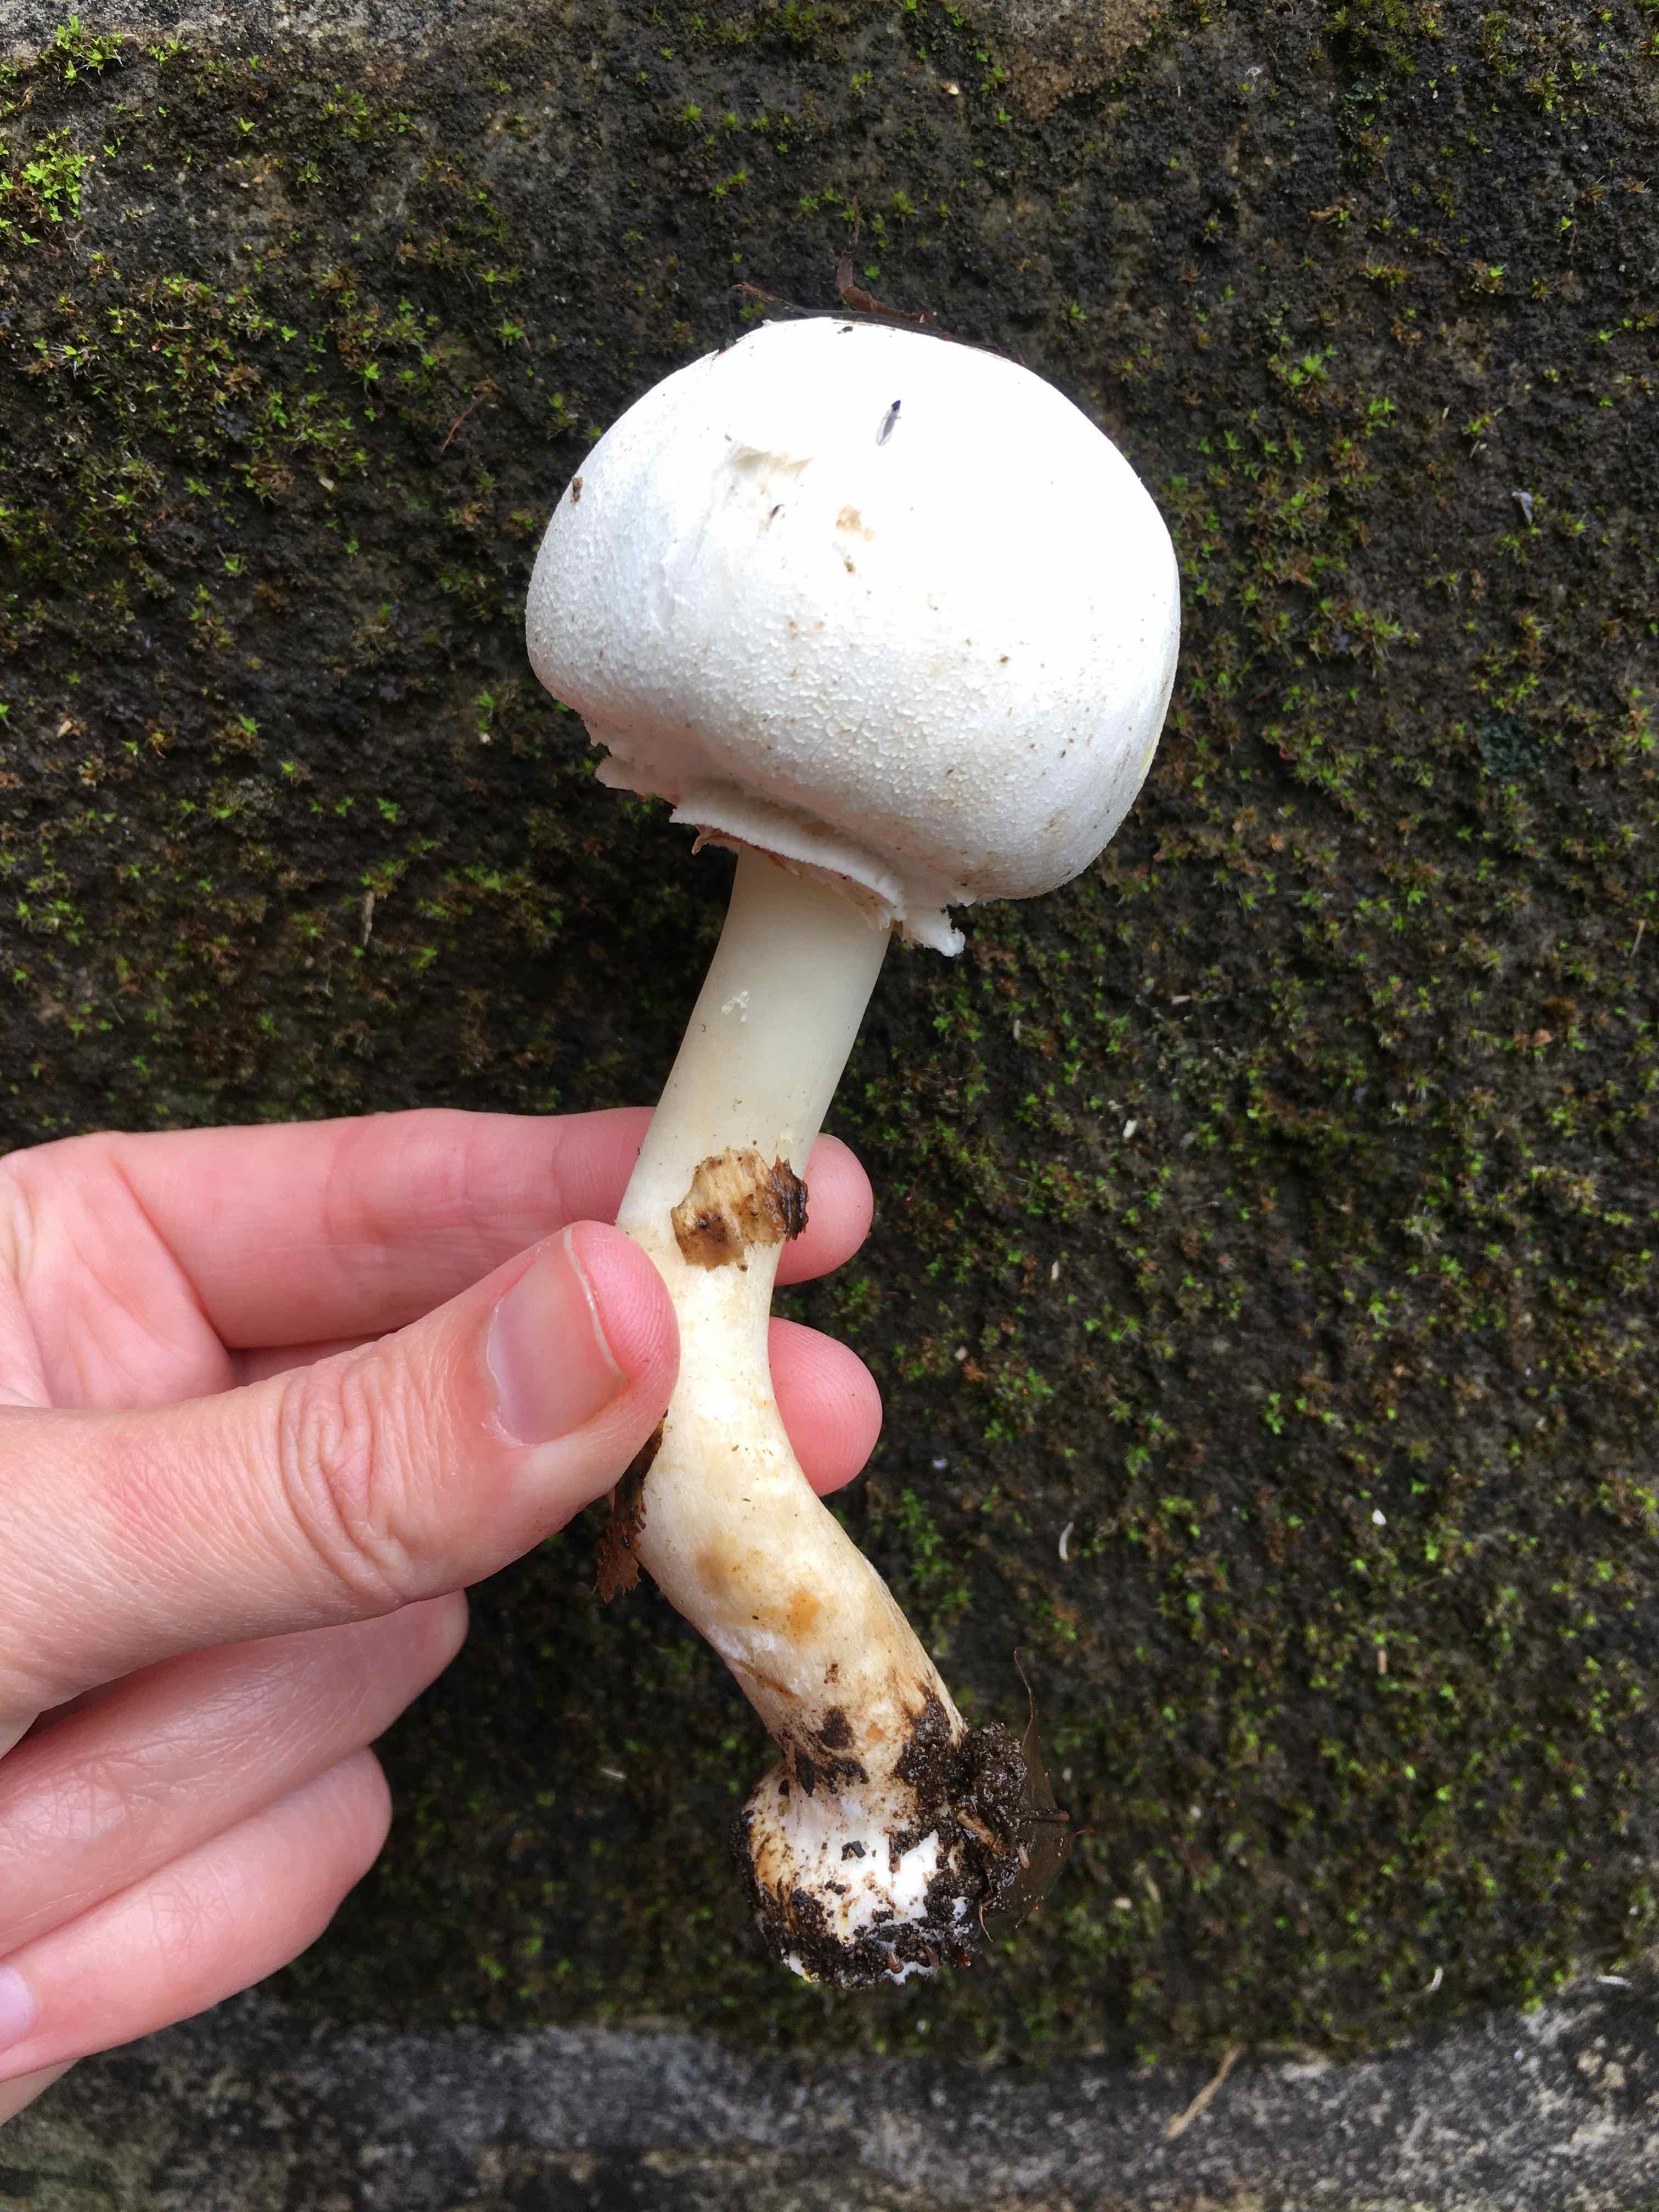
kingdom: Fungi
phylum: Basidiomycota
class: Agaricomycetes
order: Agaricales
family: Agaricaceae
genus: Agaricus
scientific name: Agaricus xanthodermus
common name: karbol-champignon
